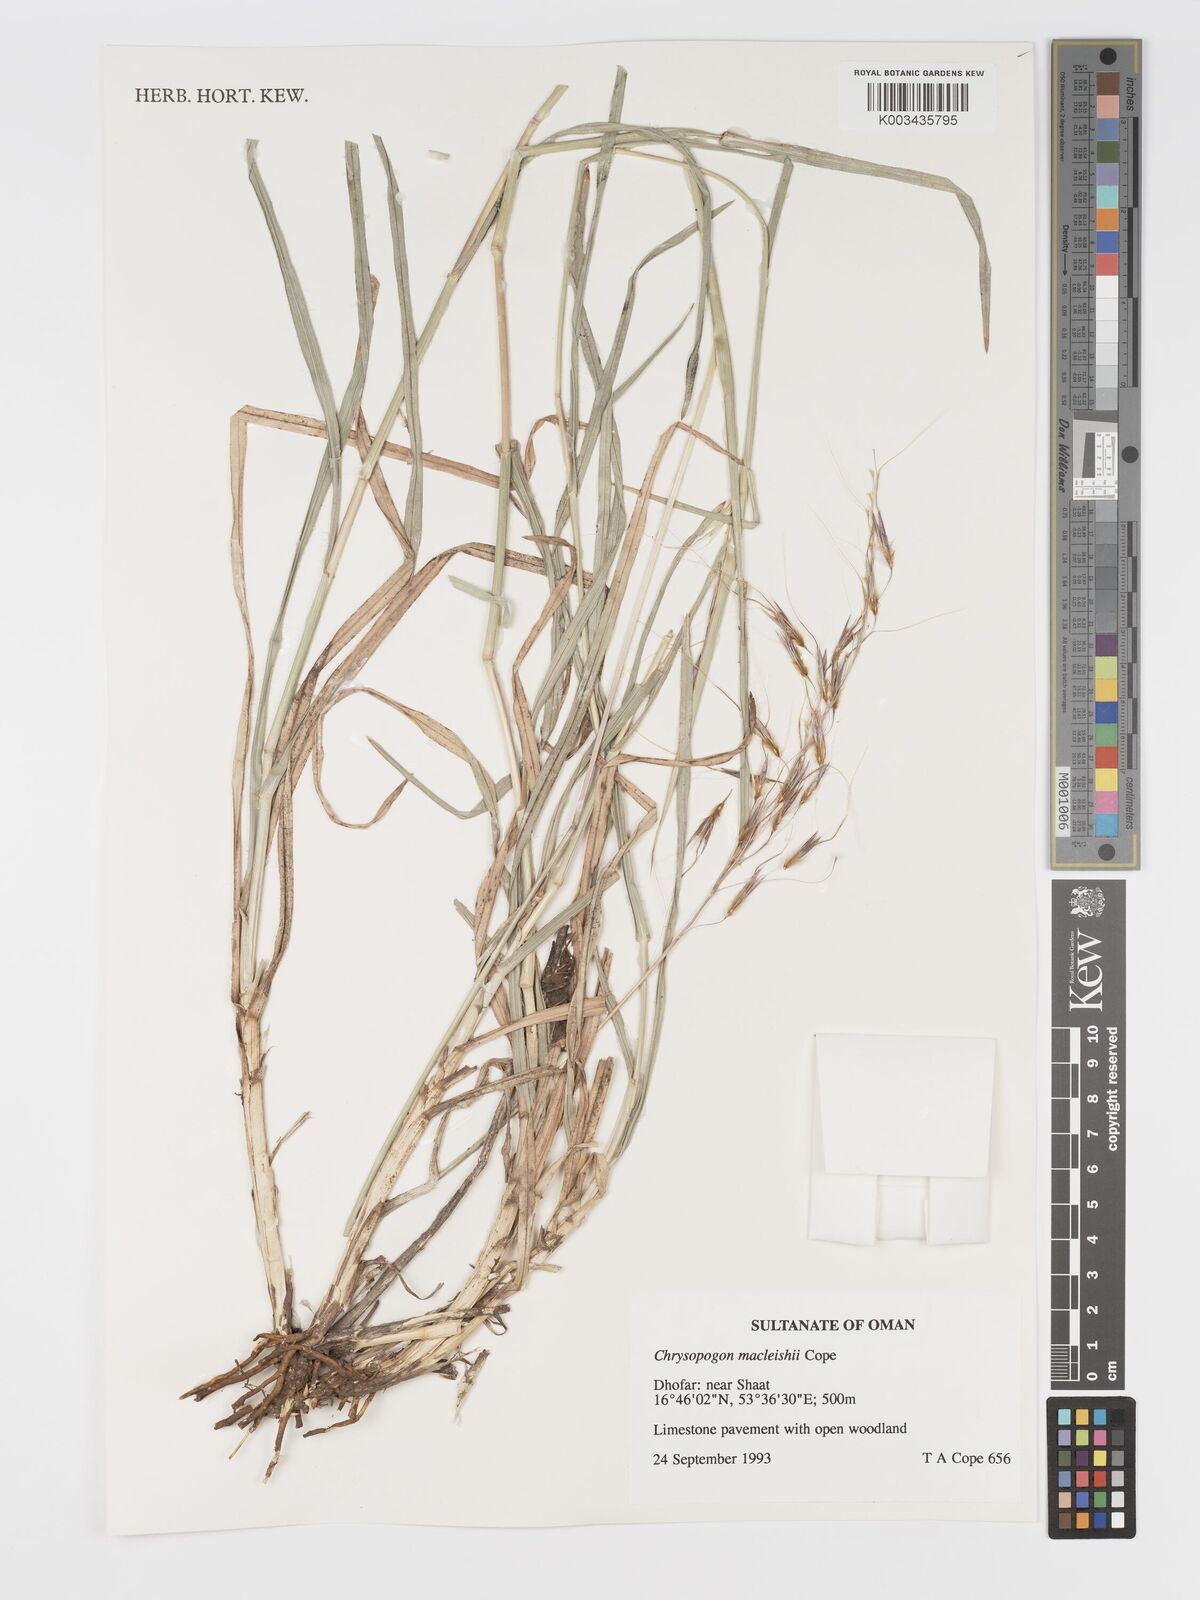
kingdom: Plantae
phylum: Tracheophyta
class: Liliopsida
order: Poales
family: Poaceae
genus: Chrysopogon
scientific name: Chrysopogon macleishii
